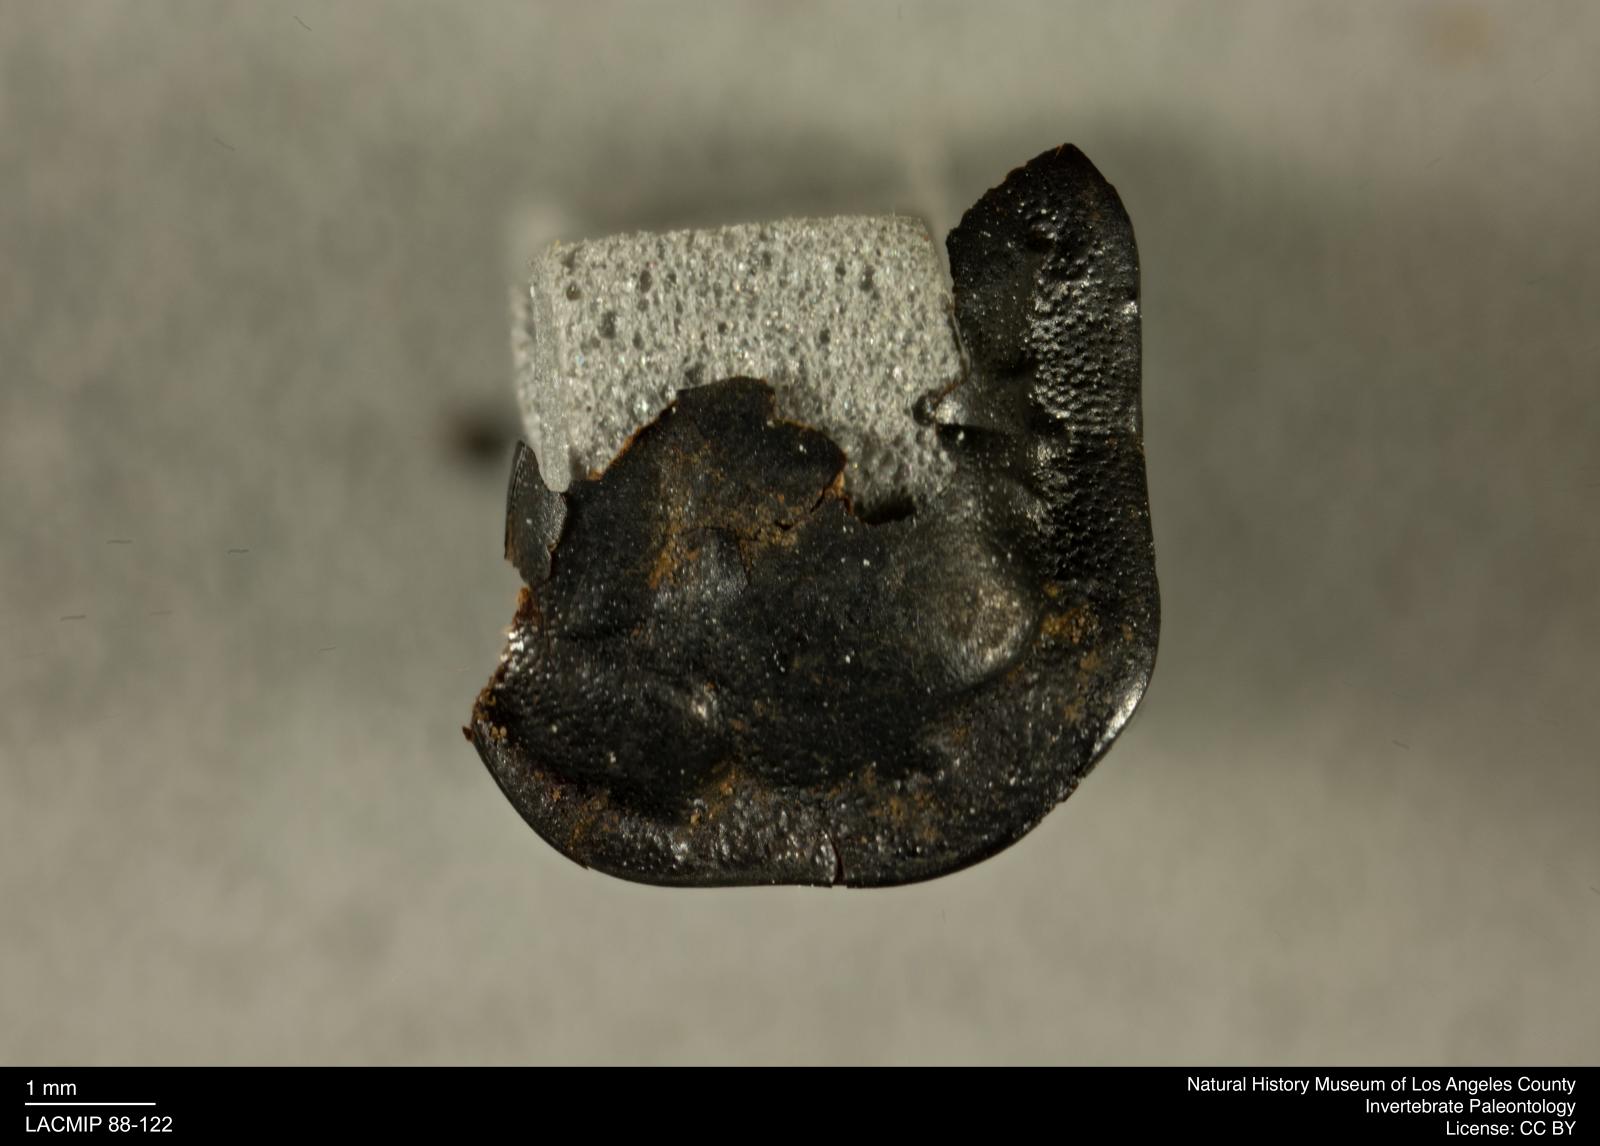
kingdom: Animalia
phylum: Arthropoda
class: Insecta
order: Coleoptera
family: Staphylinidae
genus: Nicrophorus
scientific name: Nicrophorus nigrita
